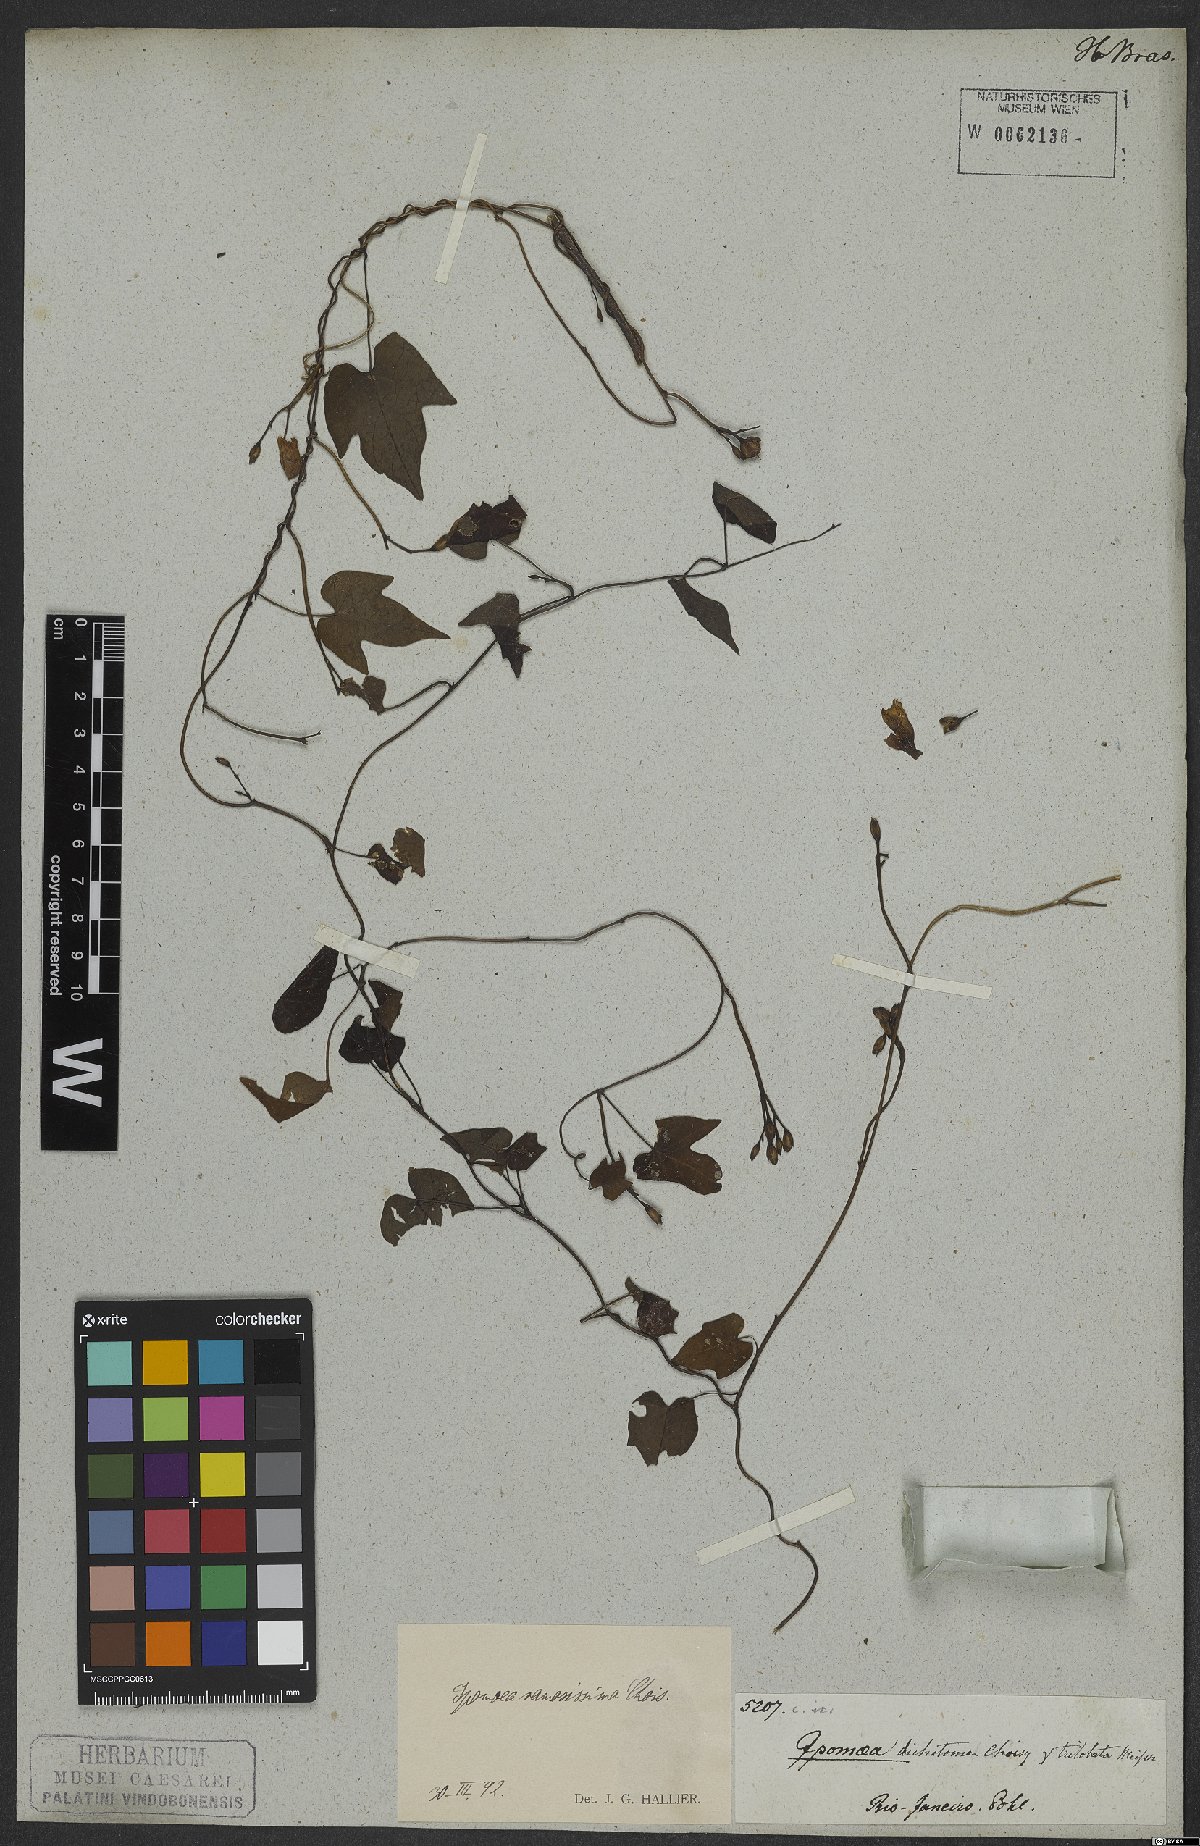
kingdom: Plantae
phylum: Tracheophyta
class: Magnoliopsida
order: Solanales
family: Convolvulaceae
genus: Ipomoea
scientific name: Ipomoea ramosissima
